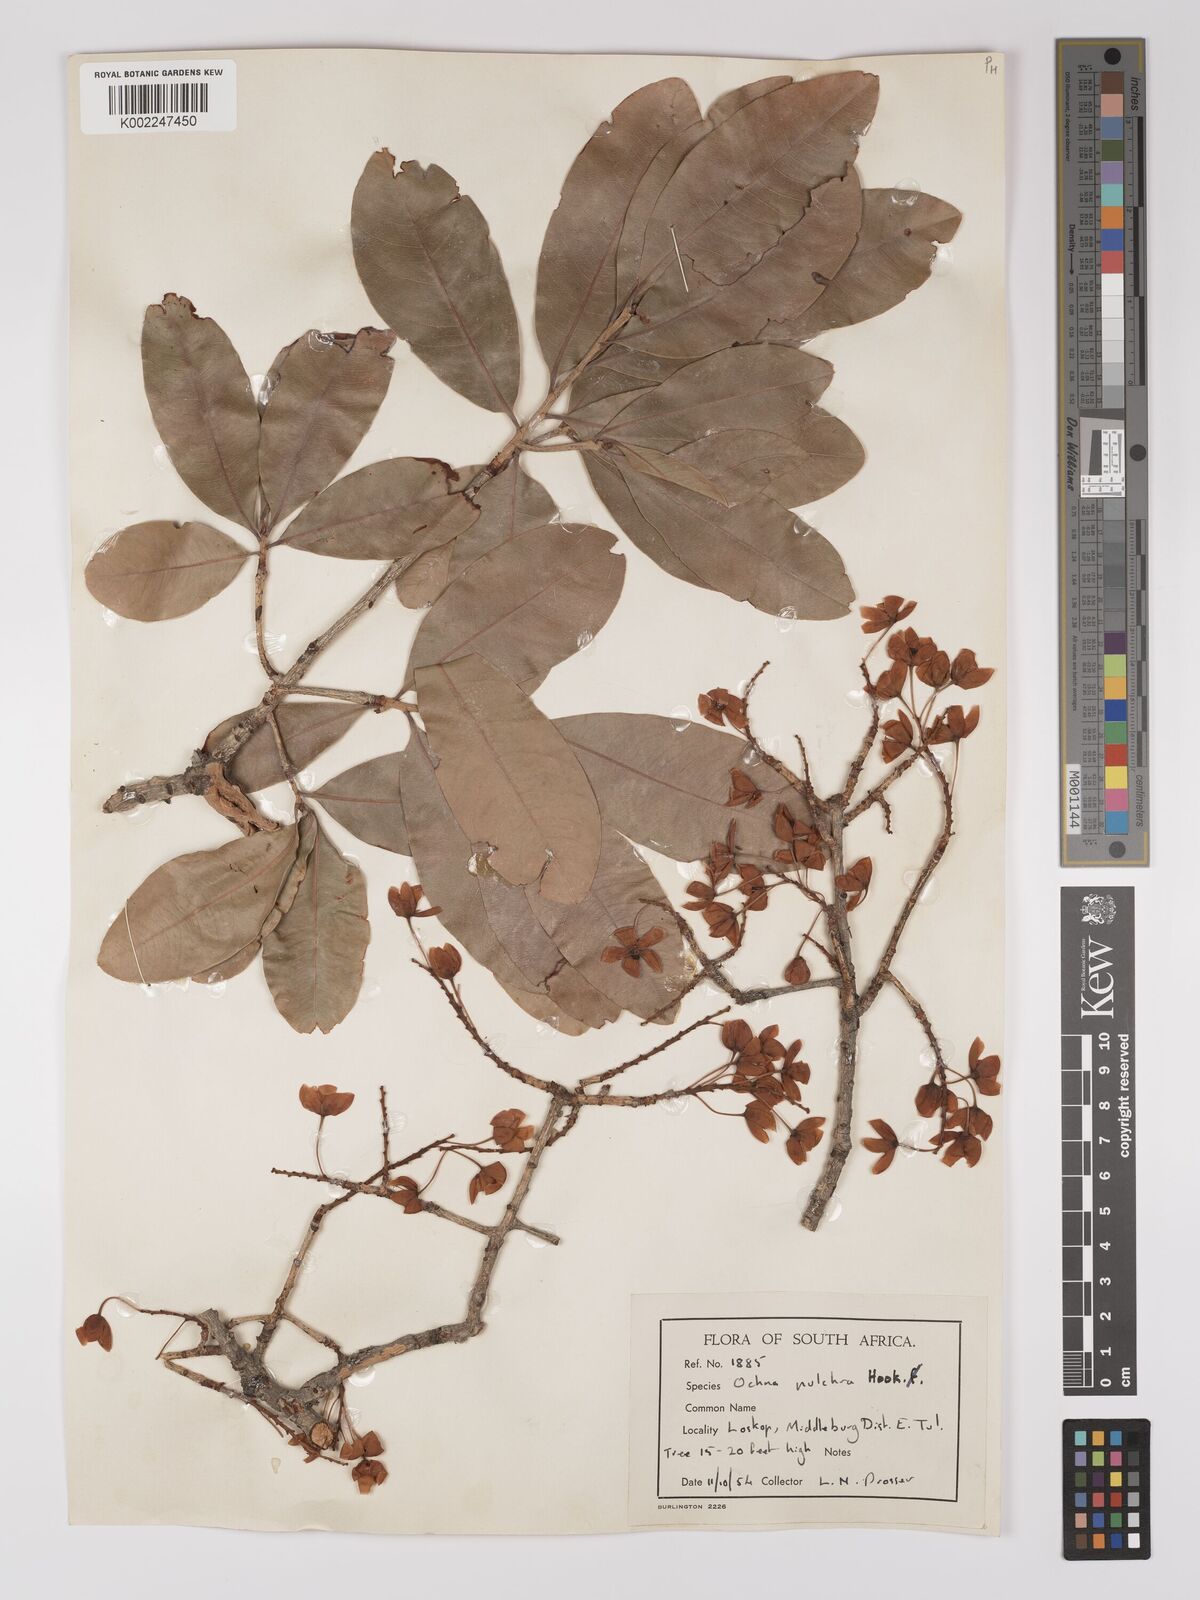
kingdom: Plantae
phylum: Tracheophyta
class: Magnoliopsida
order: Malpighiales
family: Ochnaceae
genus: Ochna
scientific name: Ochna pulchra
